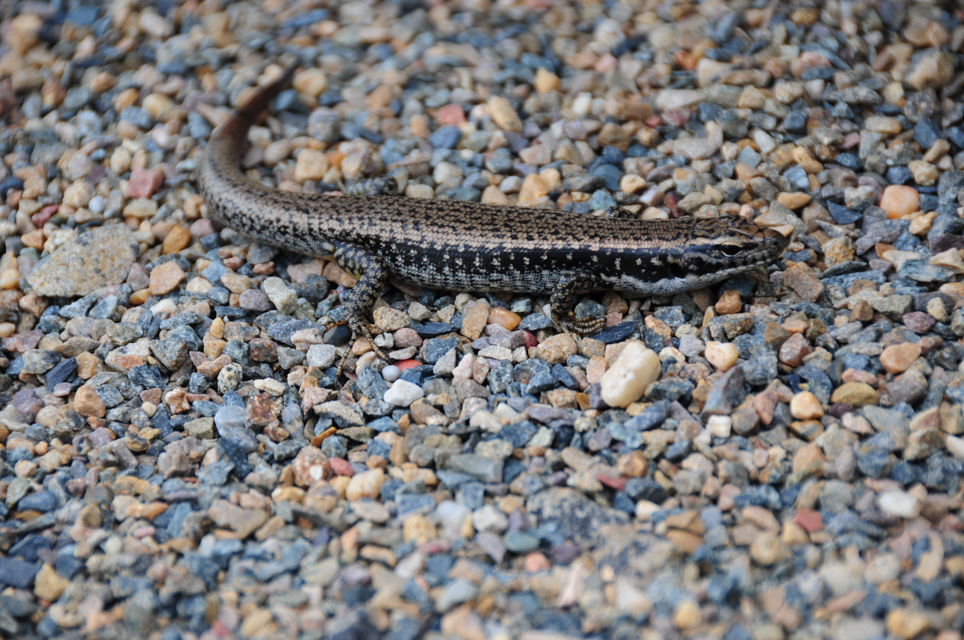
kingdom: Animalia
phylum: Chordata
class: Squamata
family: Lacertidae
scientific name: Lacertidae
